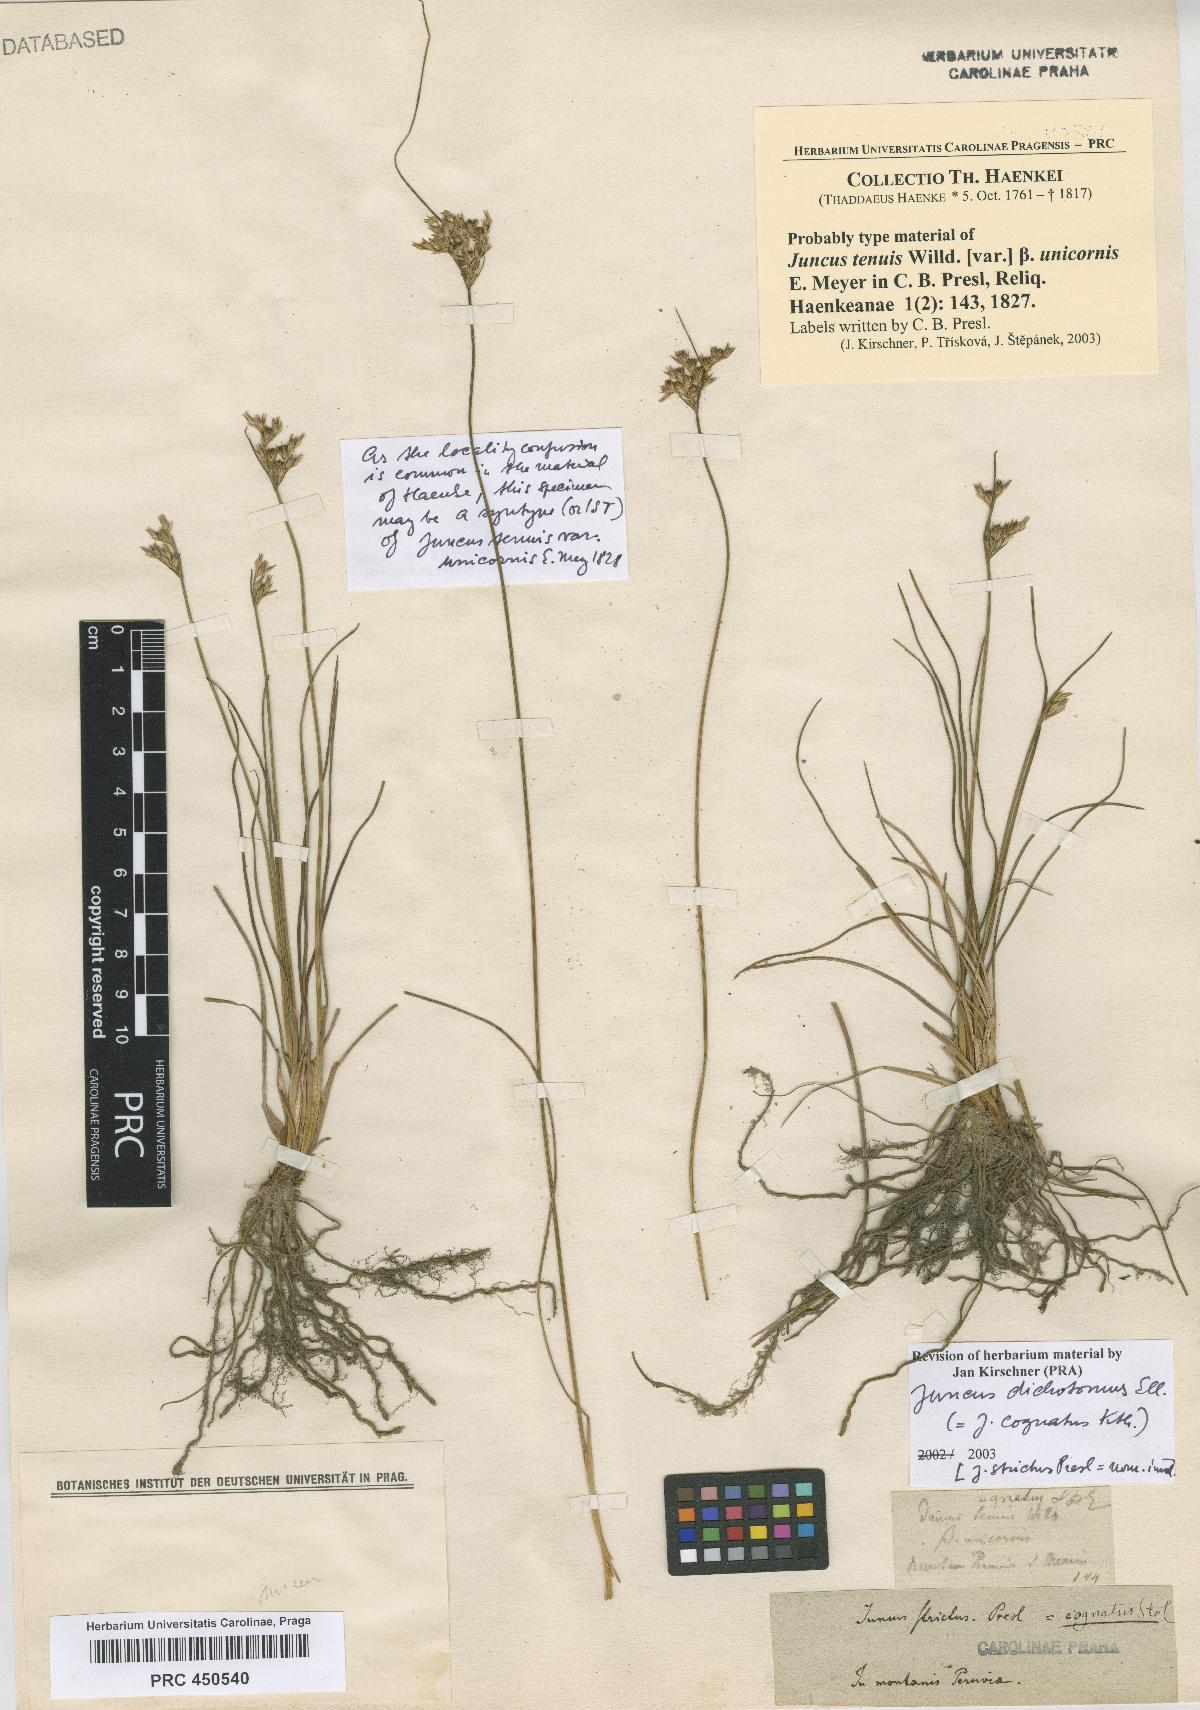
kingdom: Plantae
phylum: Tracheophyta
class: Liliopsida
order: Poales
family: Juncaceae
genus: Juncus
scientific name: Juncus dichotomus
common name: Forked rush
